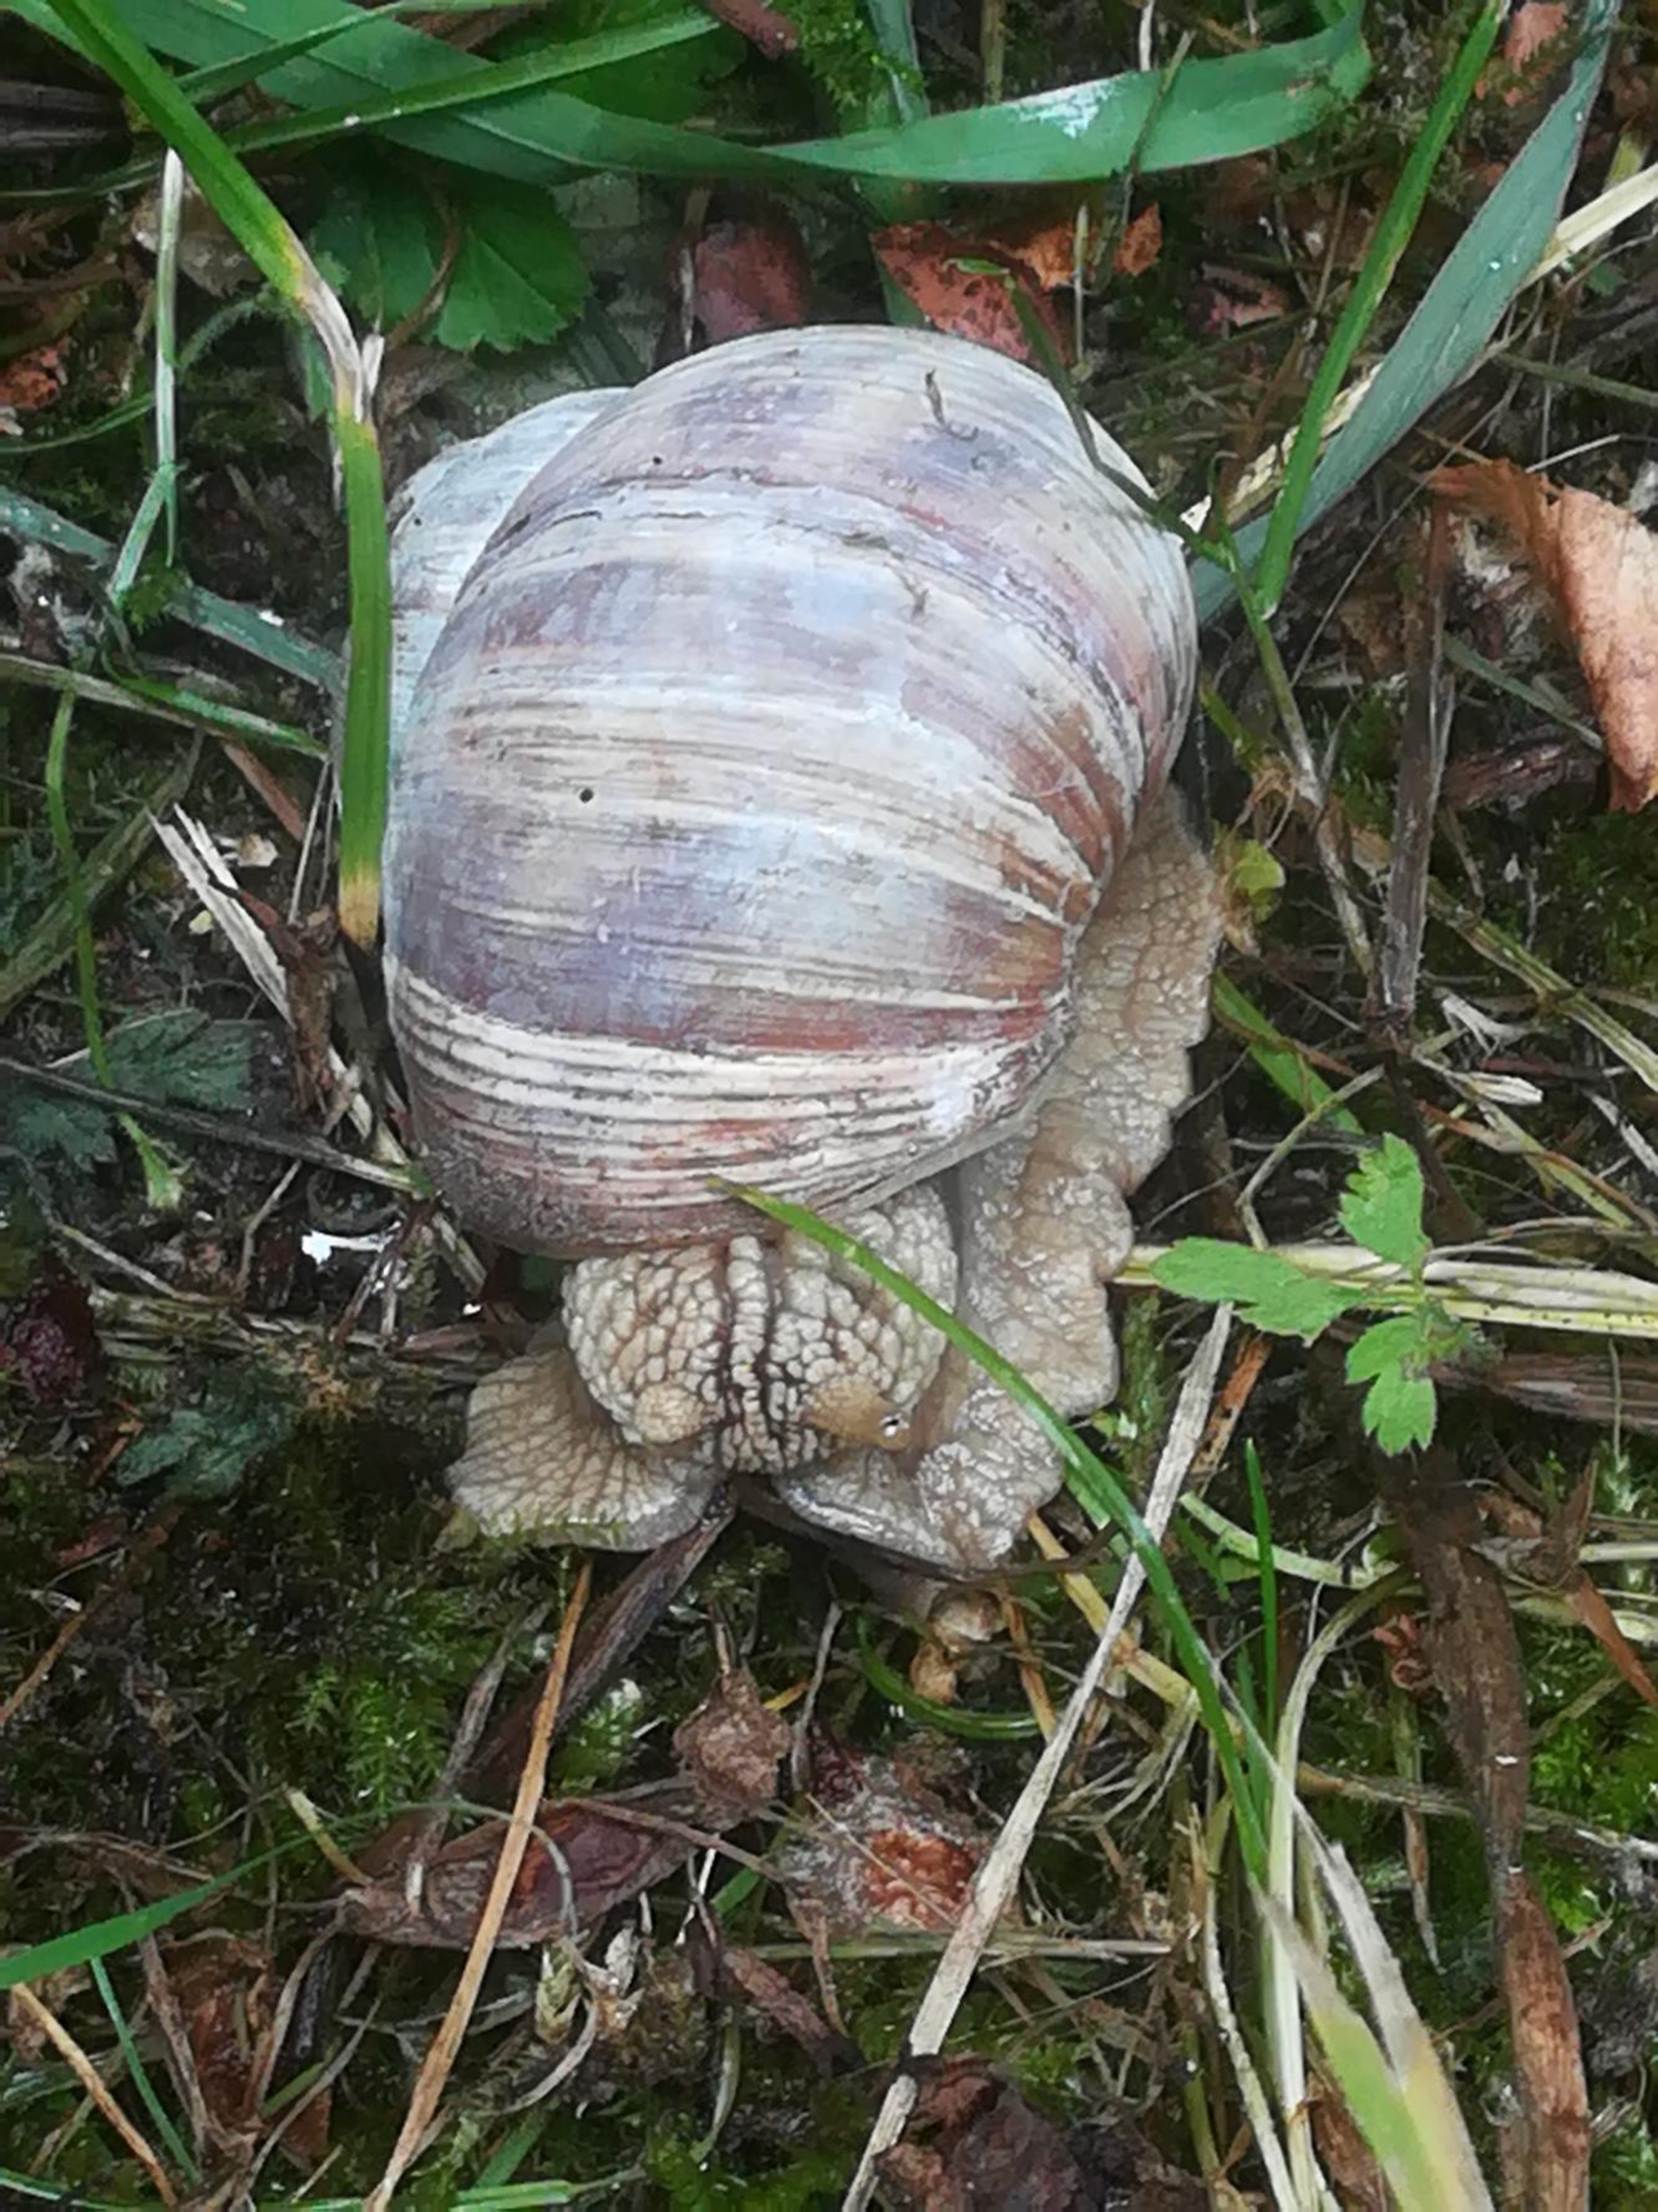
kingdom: Animalia
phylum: Mollusca
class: Gastropoda
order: Stylommatophora
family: Helicidae
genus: Helix
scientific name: Helix pomatia
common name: Vinbjergsnegl
